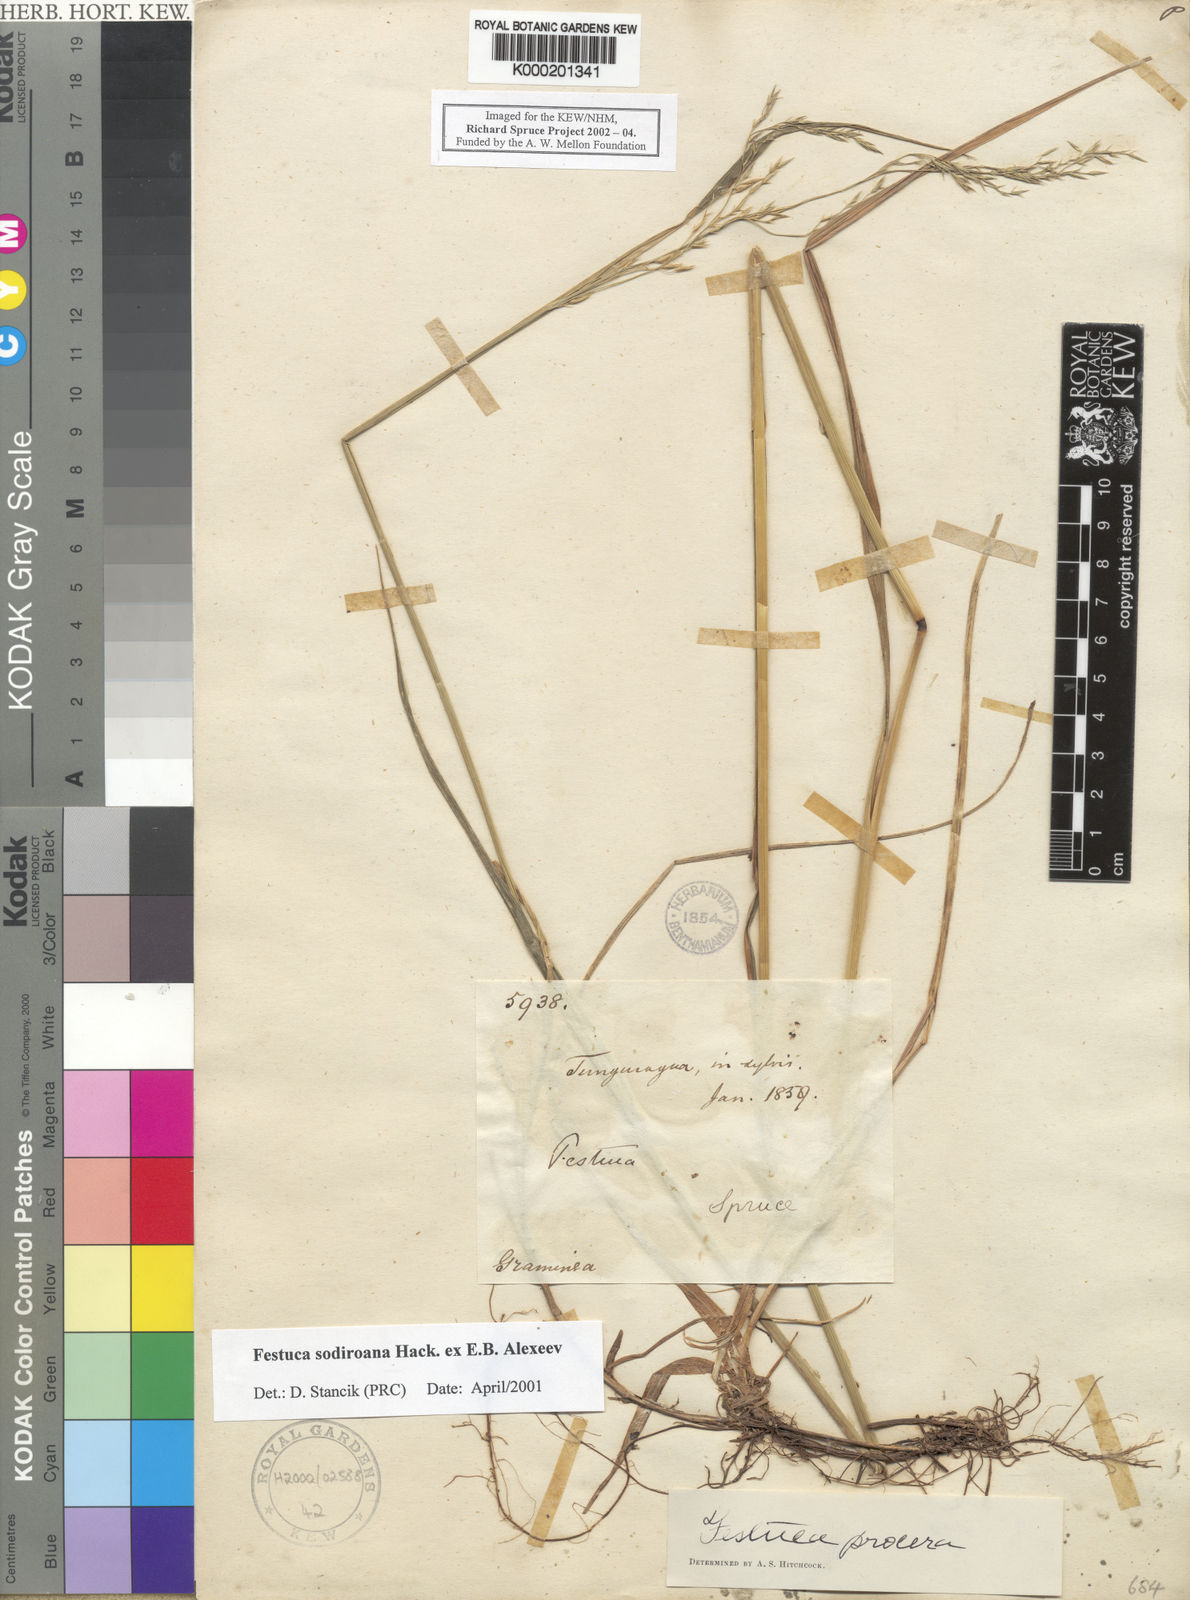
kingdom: Plantae
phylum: Tracheophyta
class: Liliopsida
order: Poales
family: Poaceae
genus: Festuca
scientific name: Festuca sodiroana
